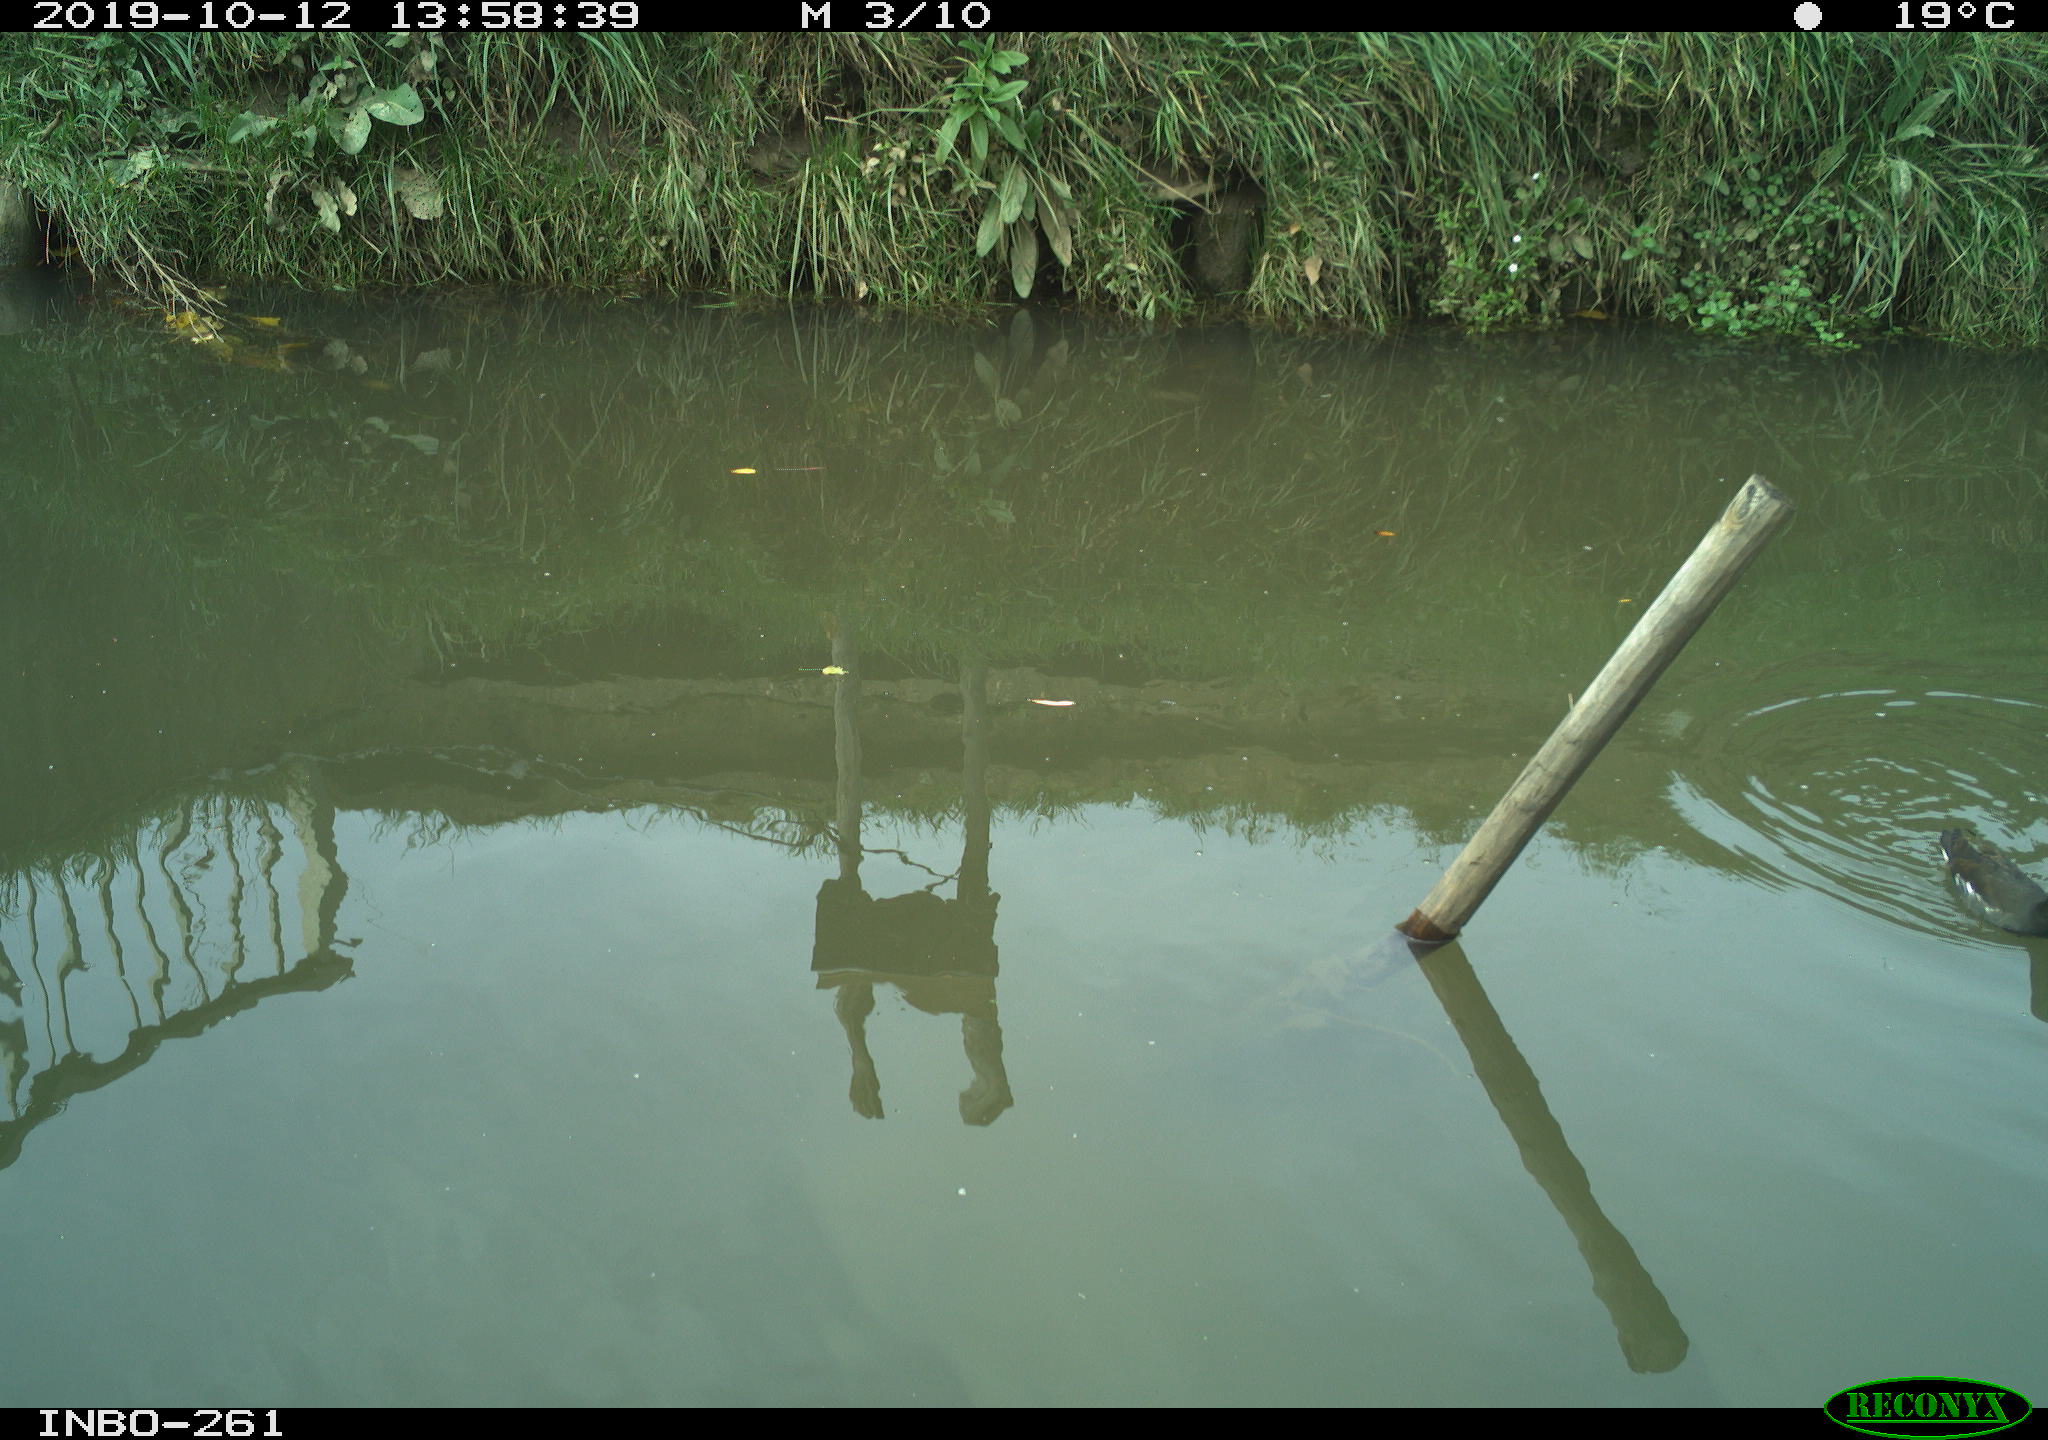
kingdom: Animalia
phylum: Chordata
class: Aves
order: Gruiformes
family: Rallidae
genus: Gallinula
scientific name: Gallinula chloropus
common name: Common moorhen
